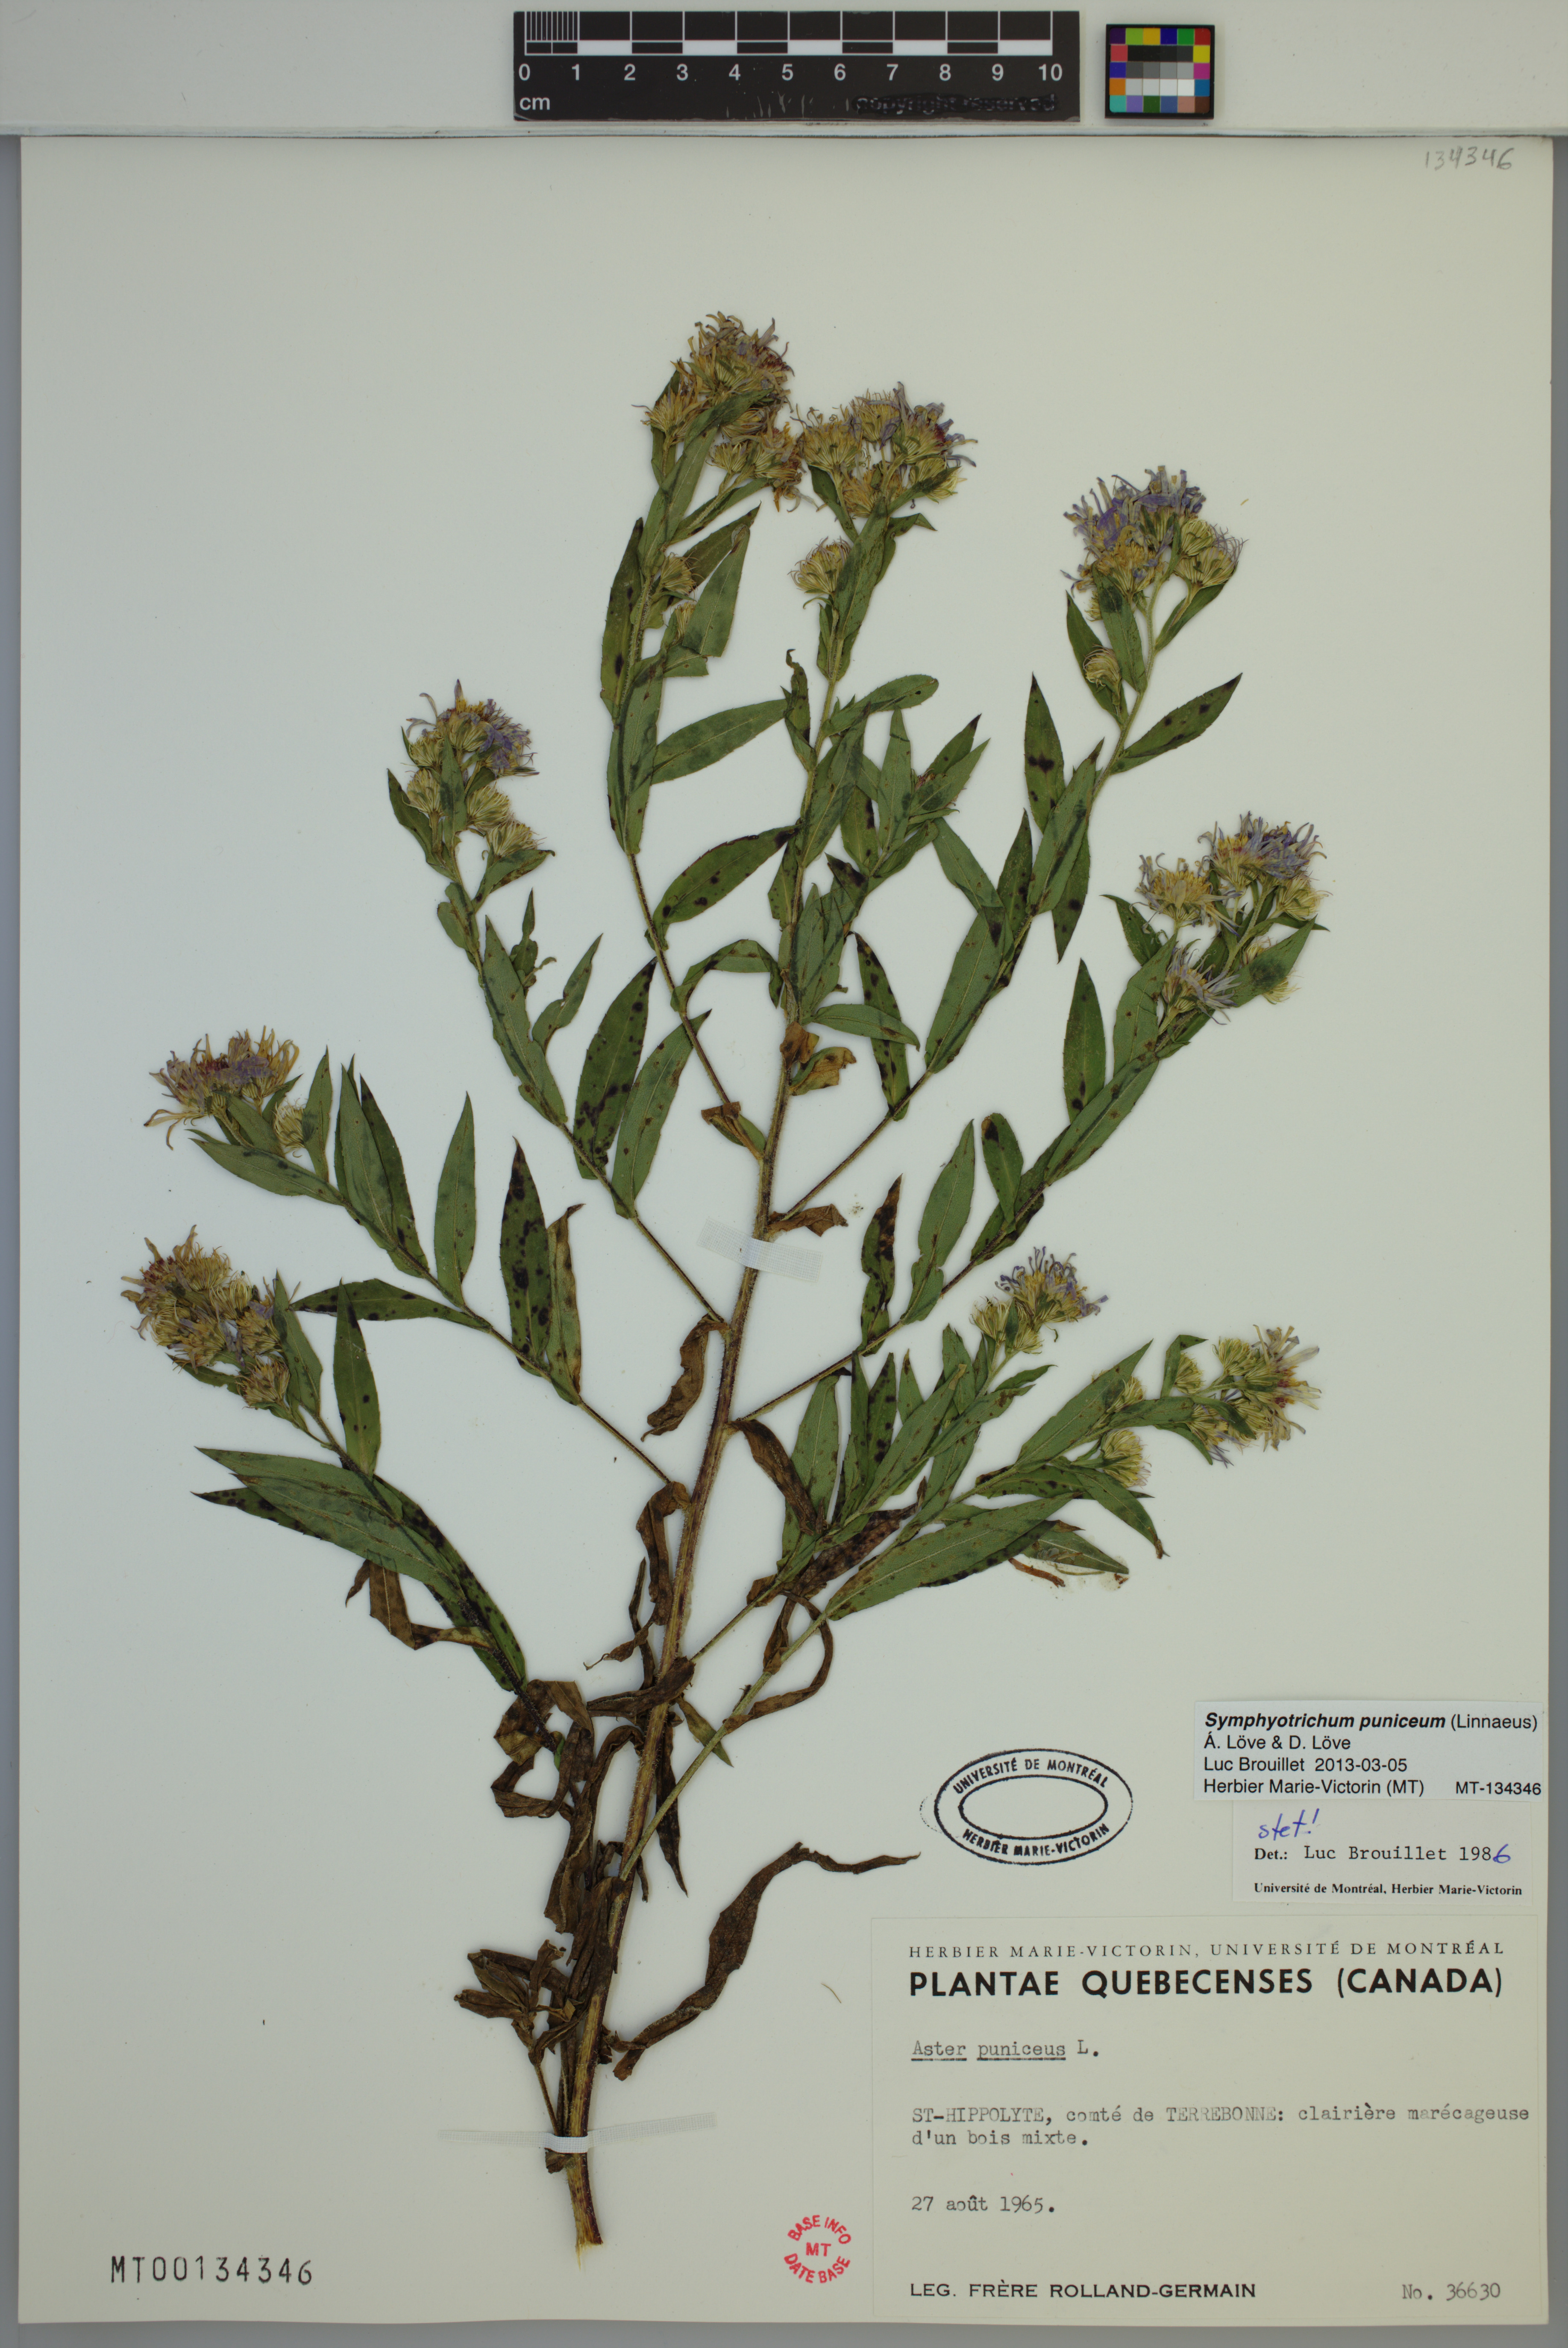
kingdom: Plantae
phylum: Tracheophyta
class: Magnoliopsida
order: Asterales
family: Asteraceae
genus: Symphyotrichum
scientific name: Symphyotrichum puniceum
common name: Bog aster
